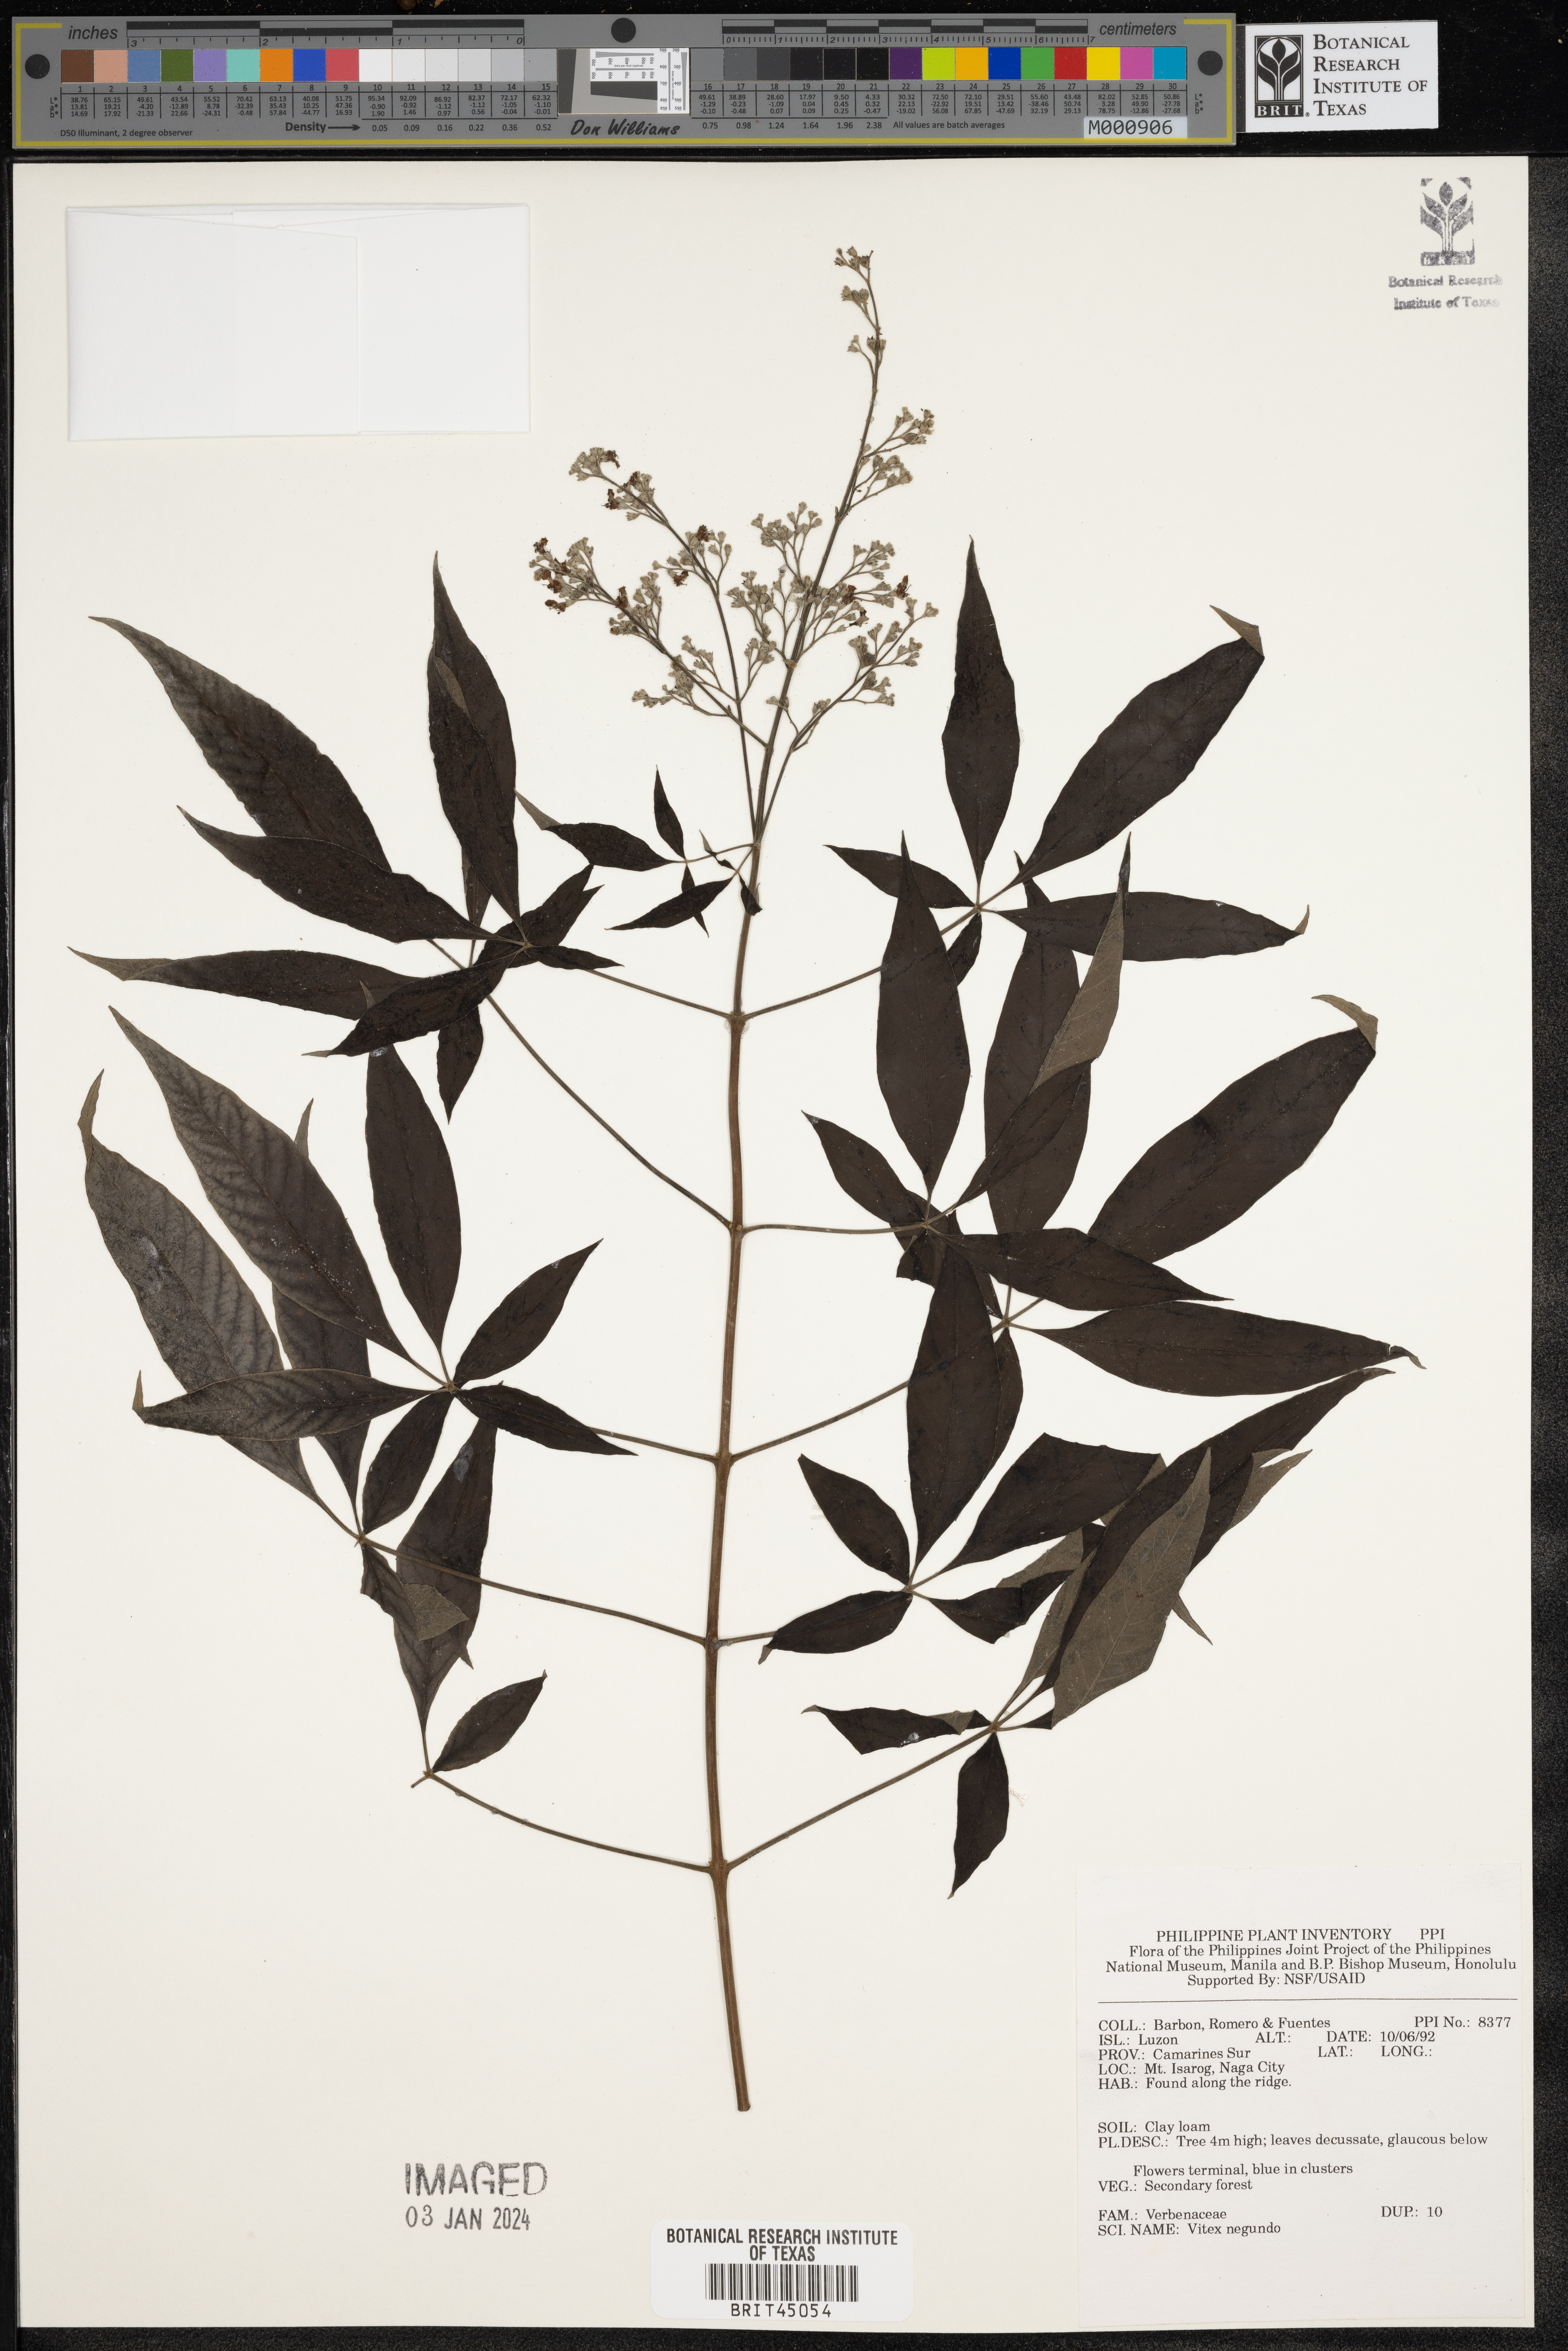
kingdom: Plantae
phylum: Tracheophyta
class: Magnoliopsida
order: Lamiales
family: Lamiaceae
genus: Vitex
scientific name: Vitex negundo
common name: Chinese chastetree
